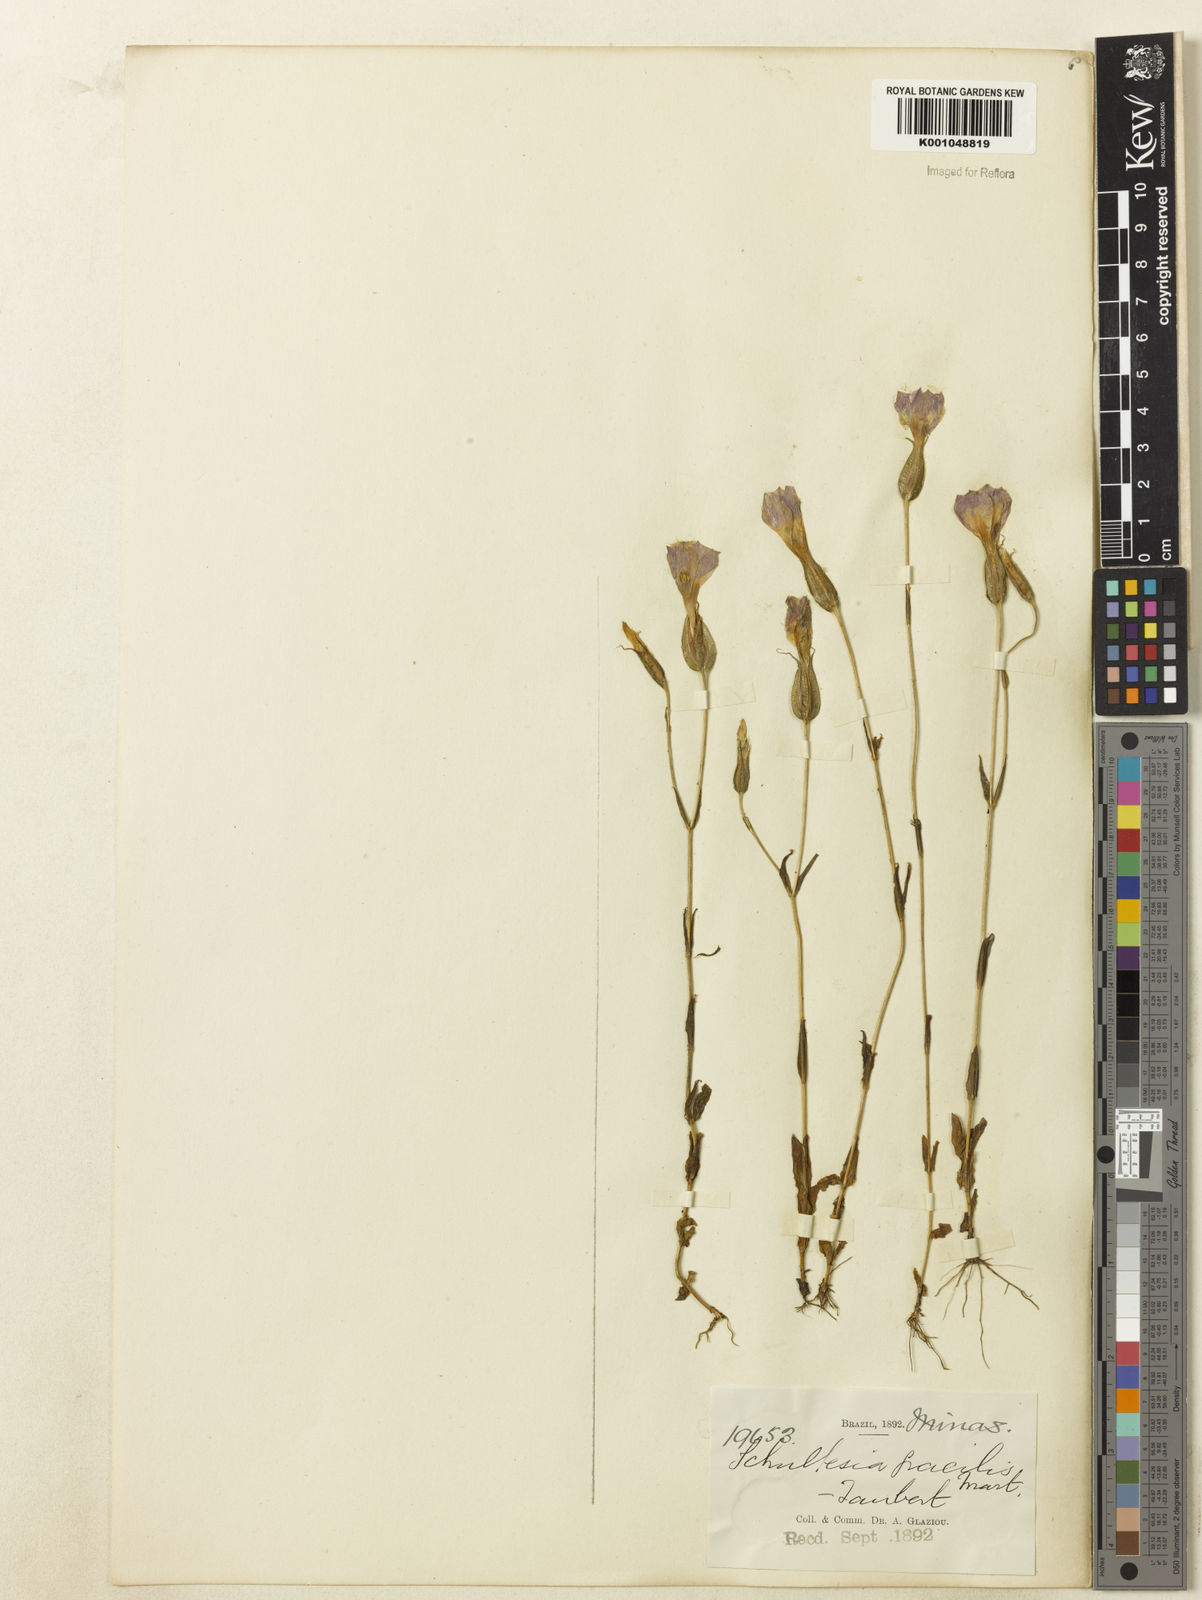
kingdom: Plantae
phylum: Tracheophyta
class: Magnoliopsida
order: Gentianales
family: Gentianaceae
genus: Schultesia
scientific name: Schultesia gracilis
